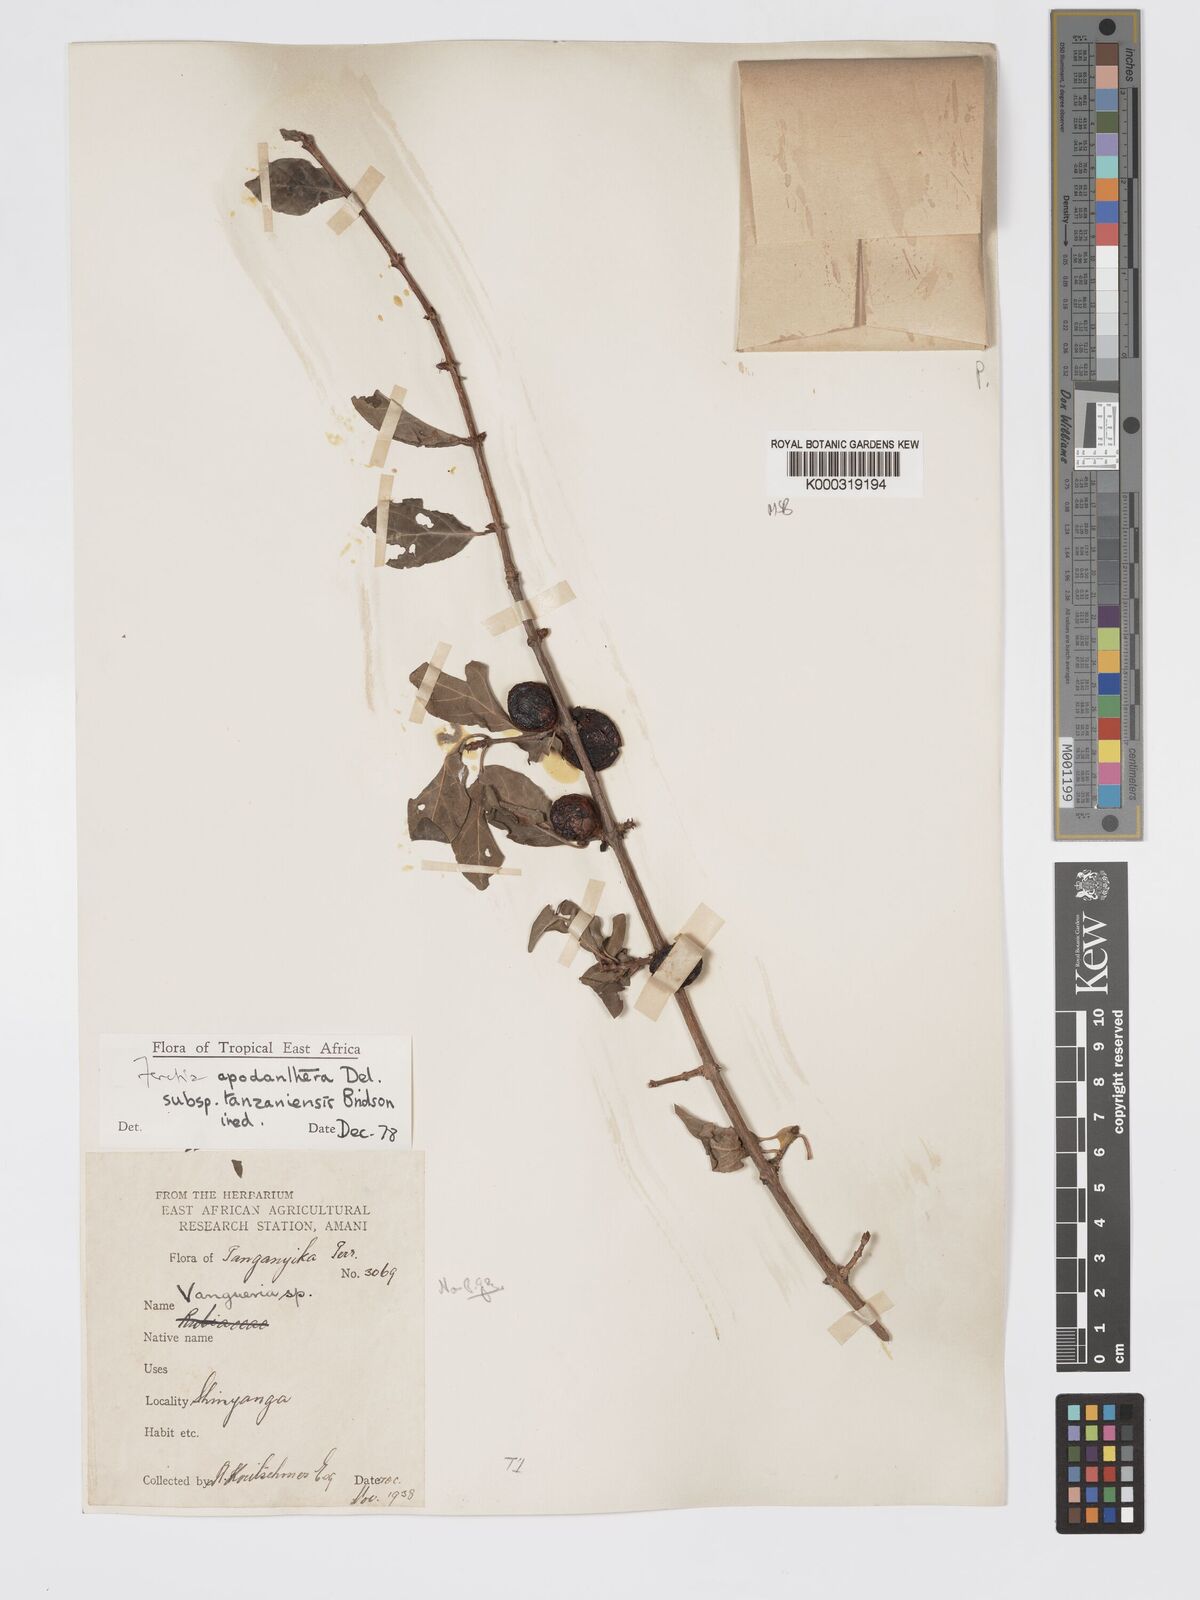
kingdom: Plantae
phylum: Tracheophyta
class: Magnoliopsida
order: Gentianales
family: Rubiaceae
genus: Feretia
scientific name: Feretia apodanthera
